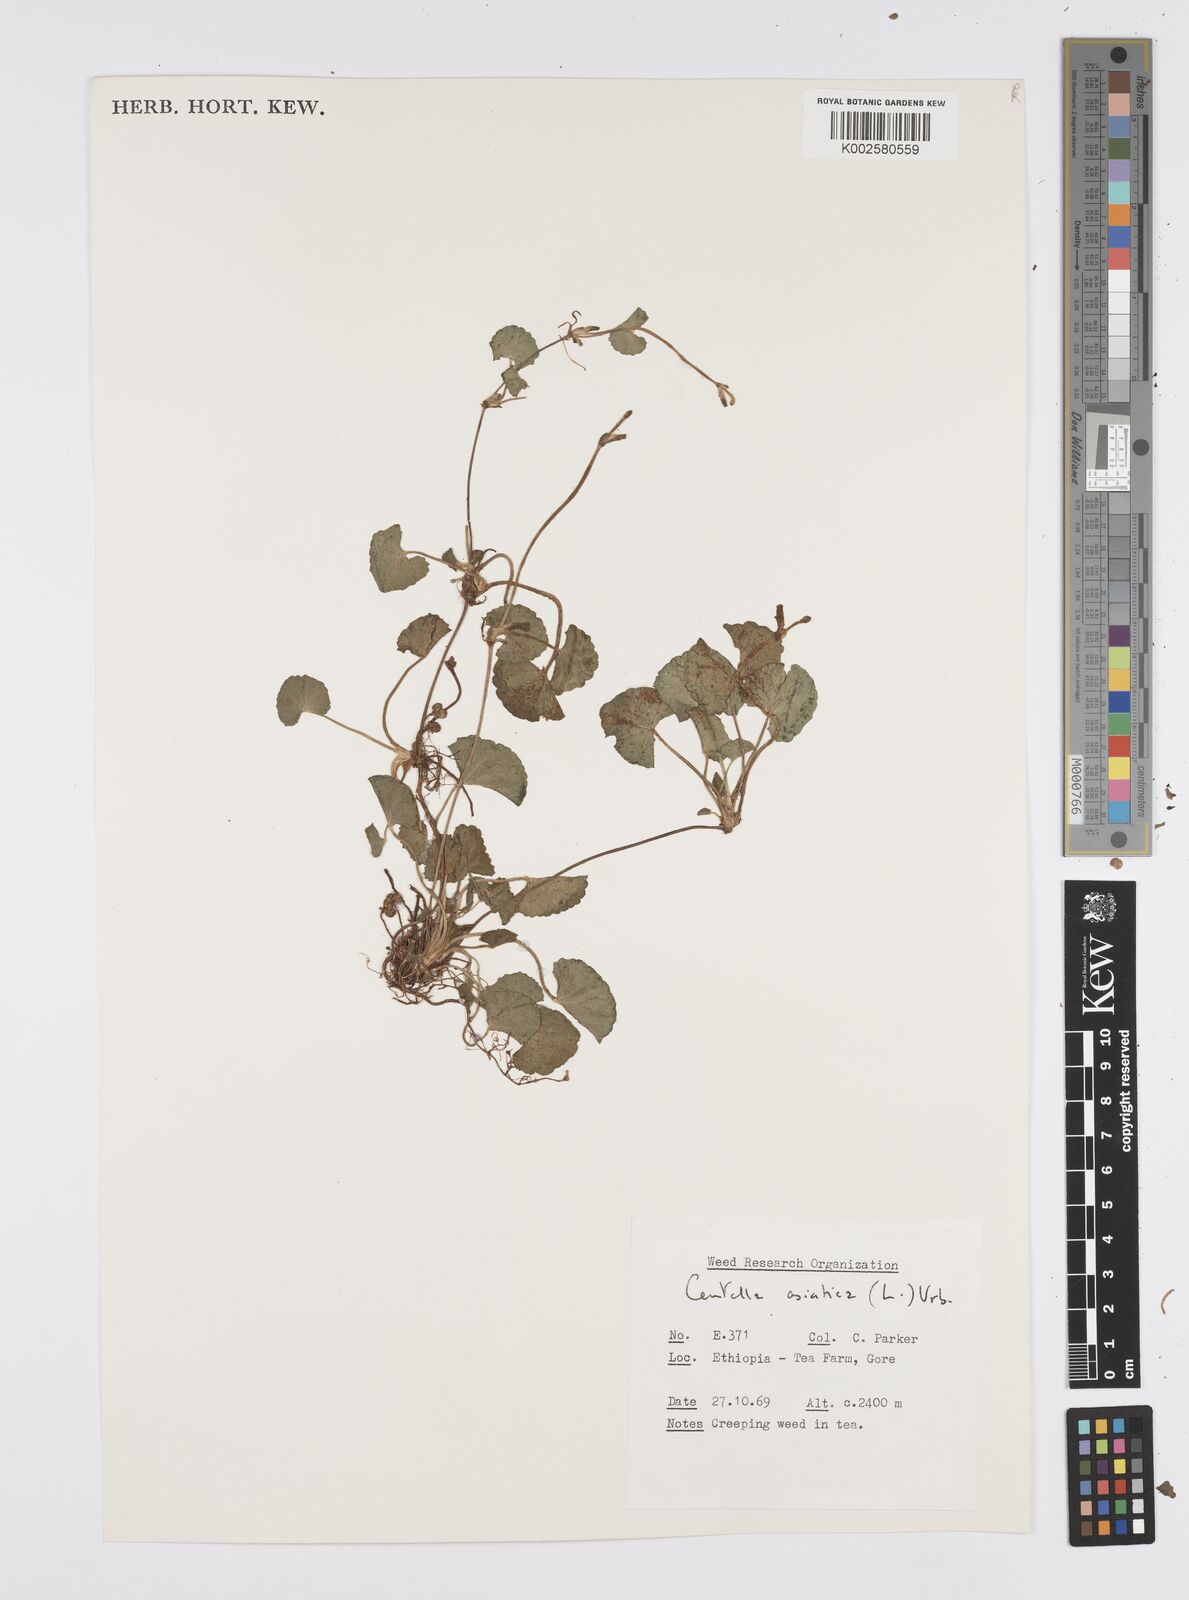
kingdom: Plantae
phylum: Tracheophyta
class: Magnoliopsida
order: Apiales
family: Apiaceae
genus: Centella
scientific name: Centella asiatica
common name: Spadeleaf
